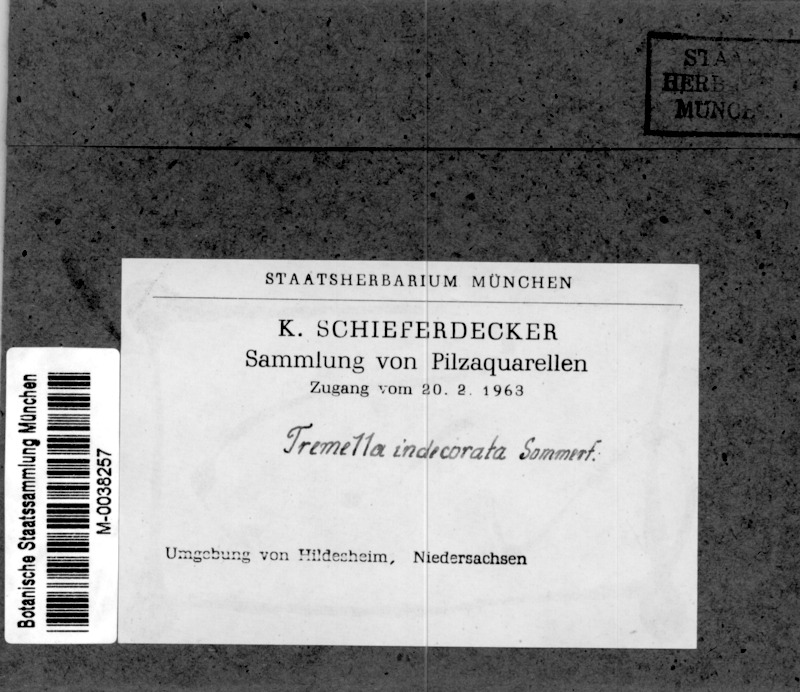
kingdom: Fungi
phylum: Basidiomycota
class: Tremellomycetes
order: Tremellales
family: Tremellaceae
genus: Tremella
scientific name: Tremella indecorata
